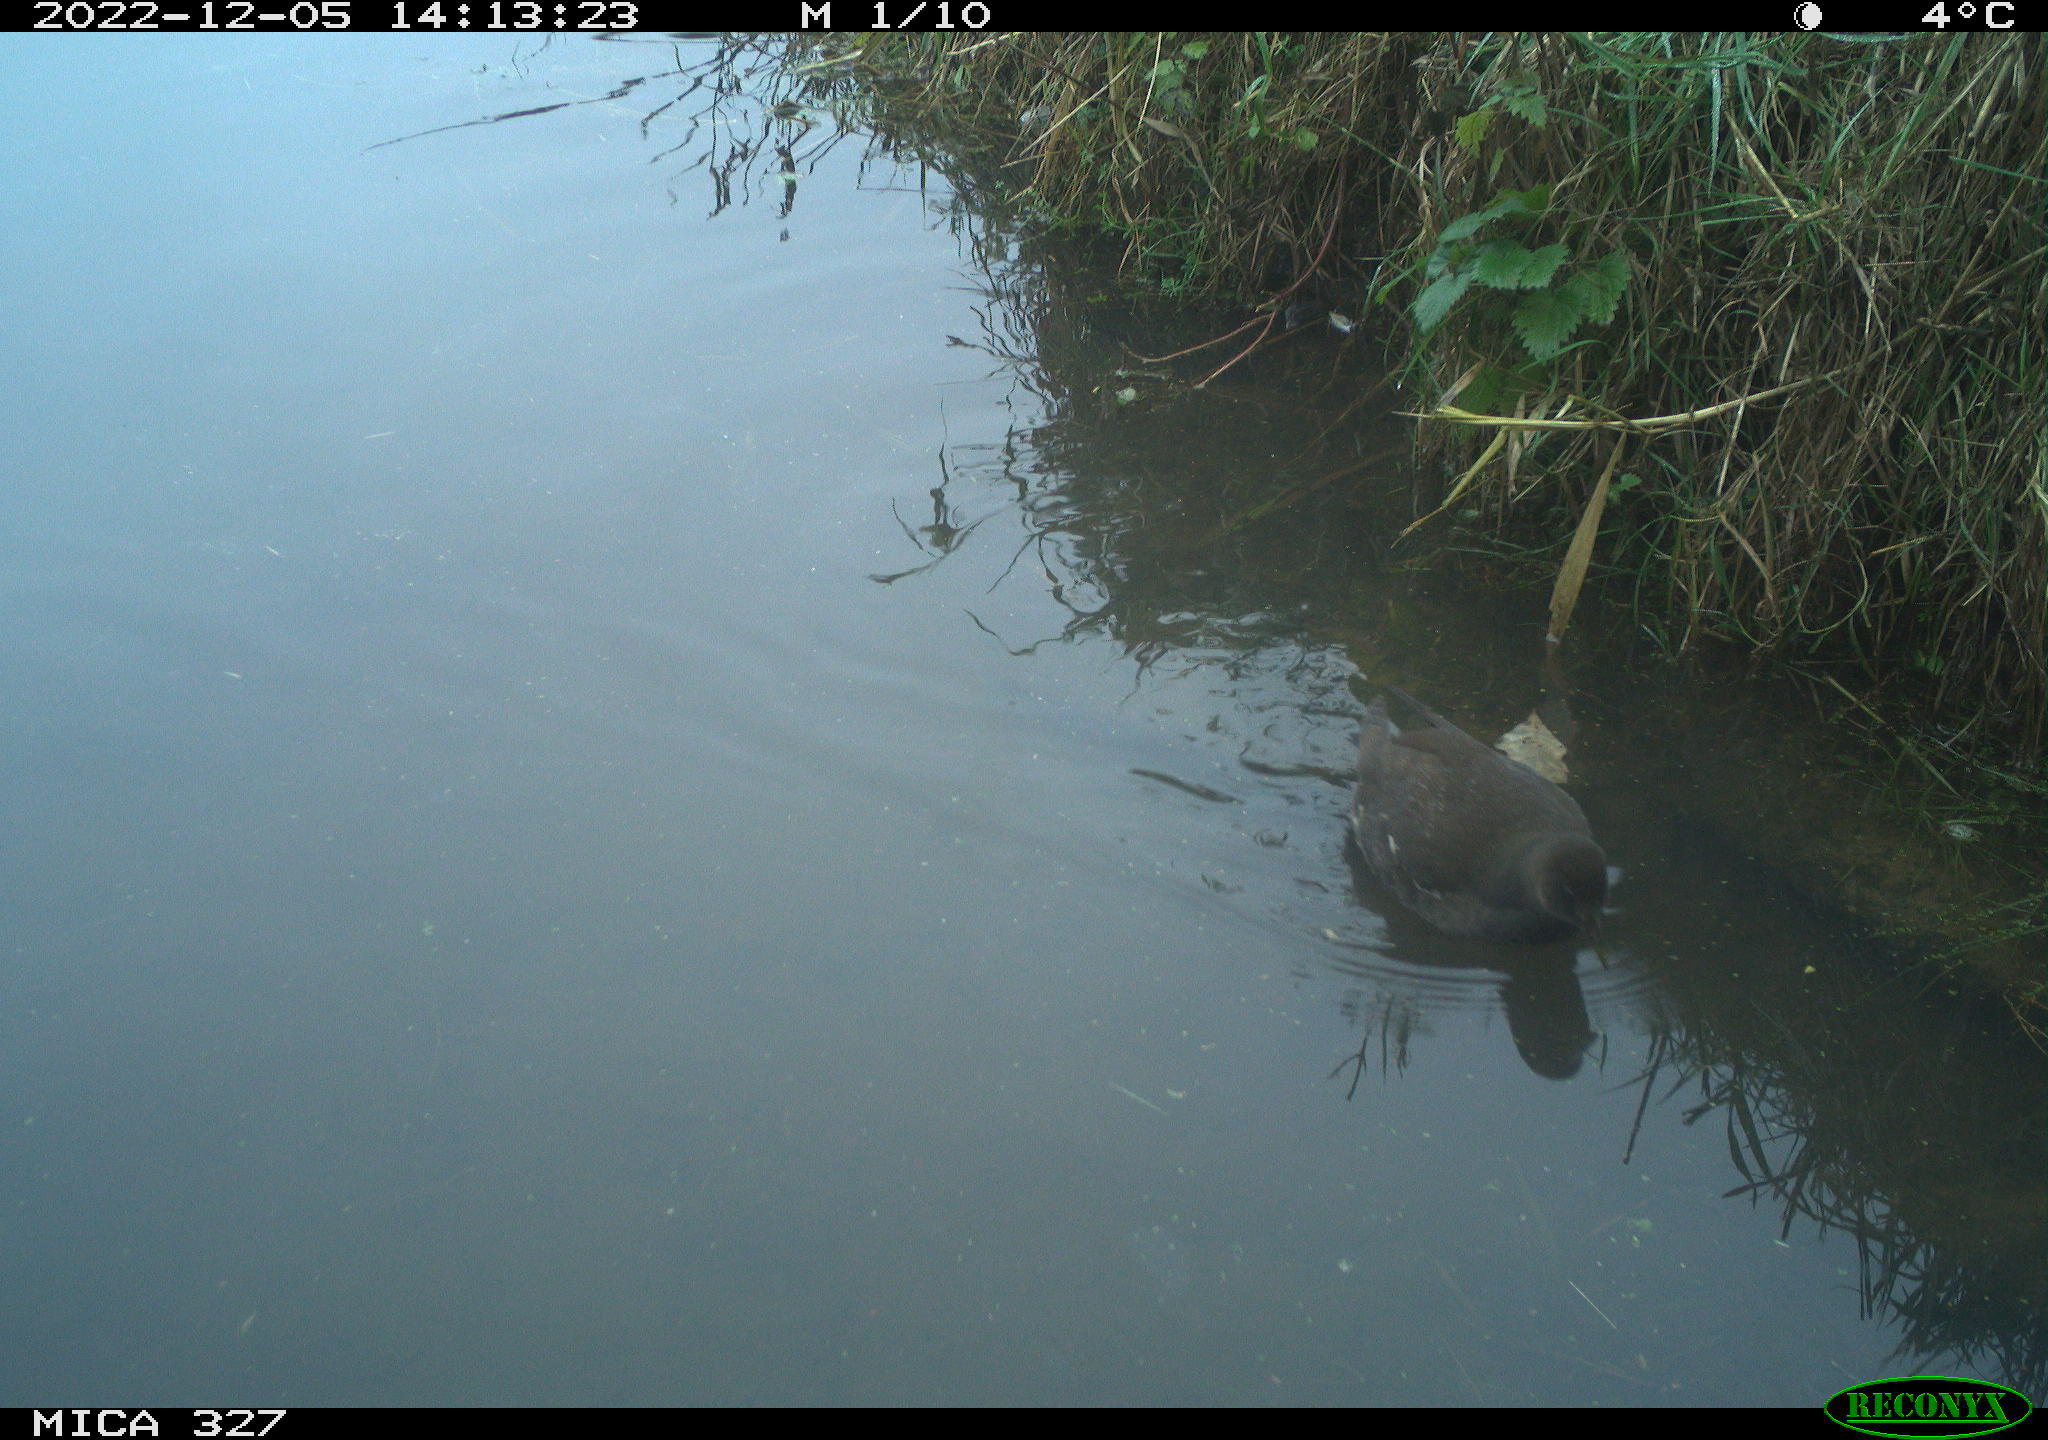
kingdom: Animalia
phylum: Chordata
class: Aves
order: Gruiformes
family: Rallidae
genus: Gallinula
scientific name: Gallinula chloropus
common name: Common moorhen
